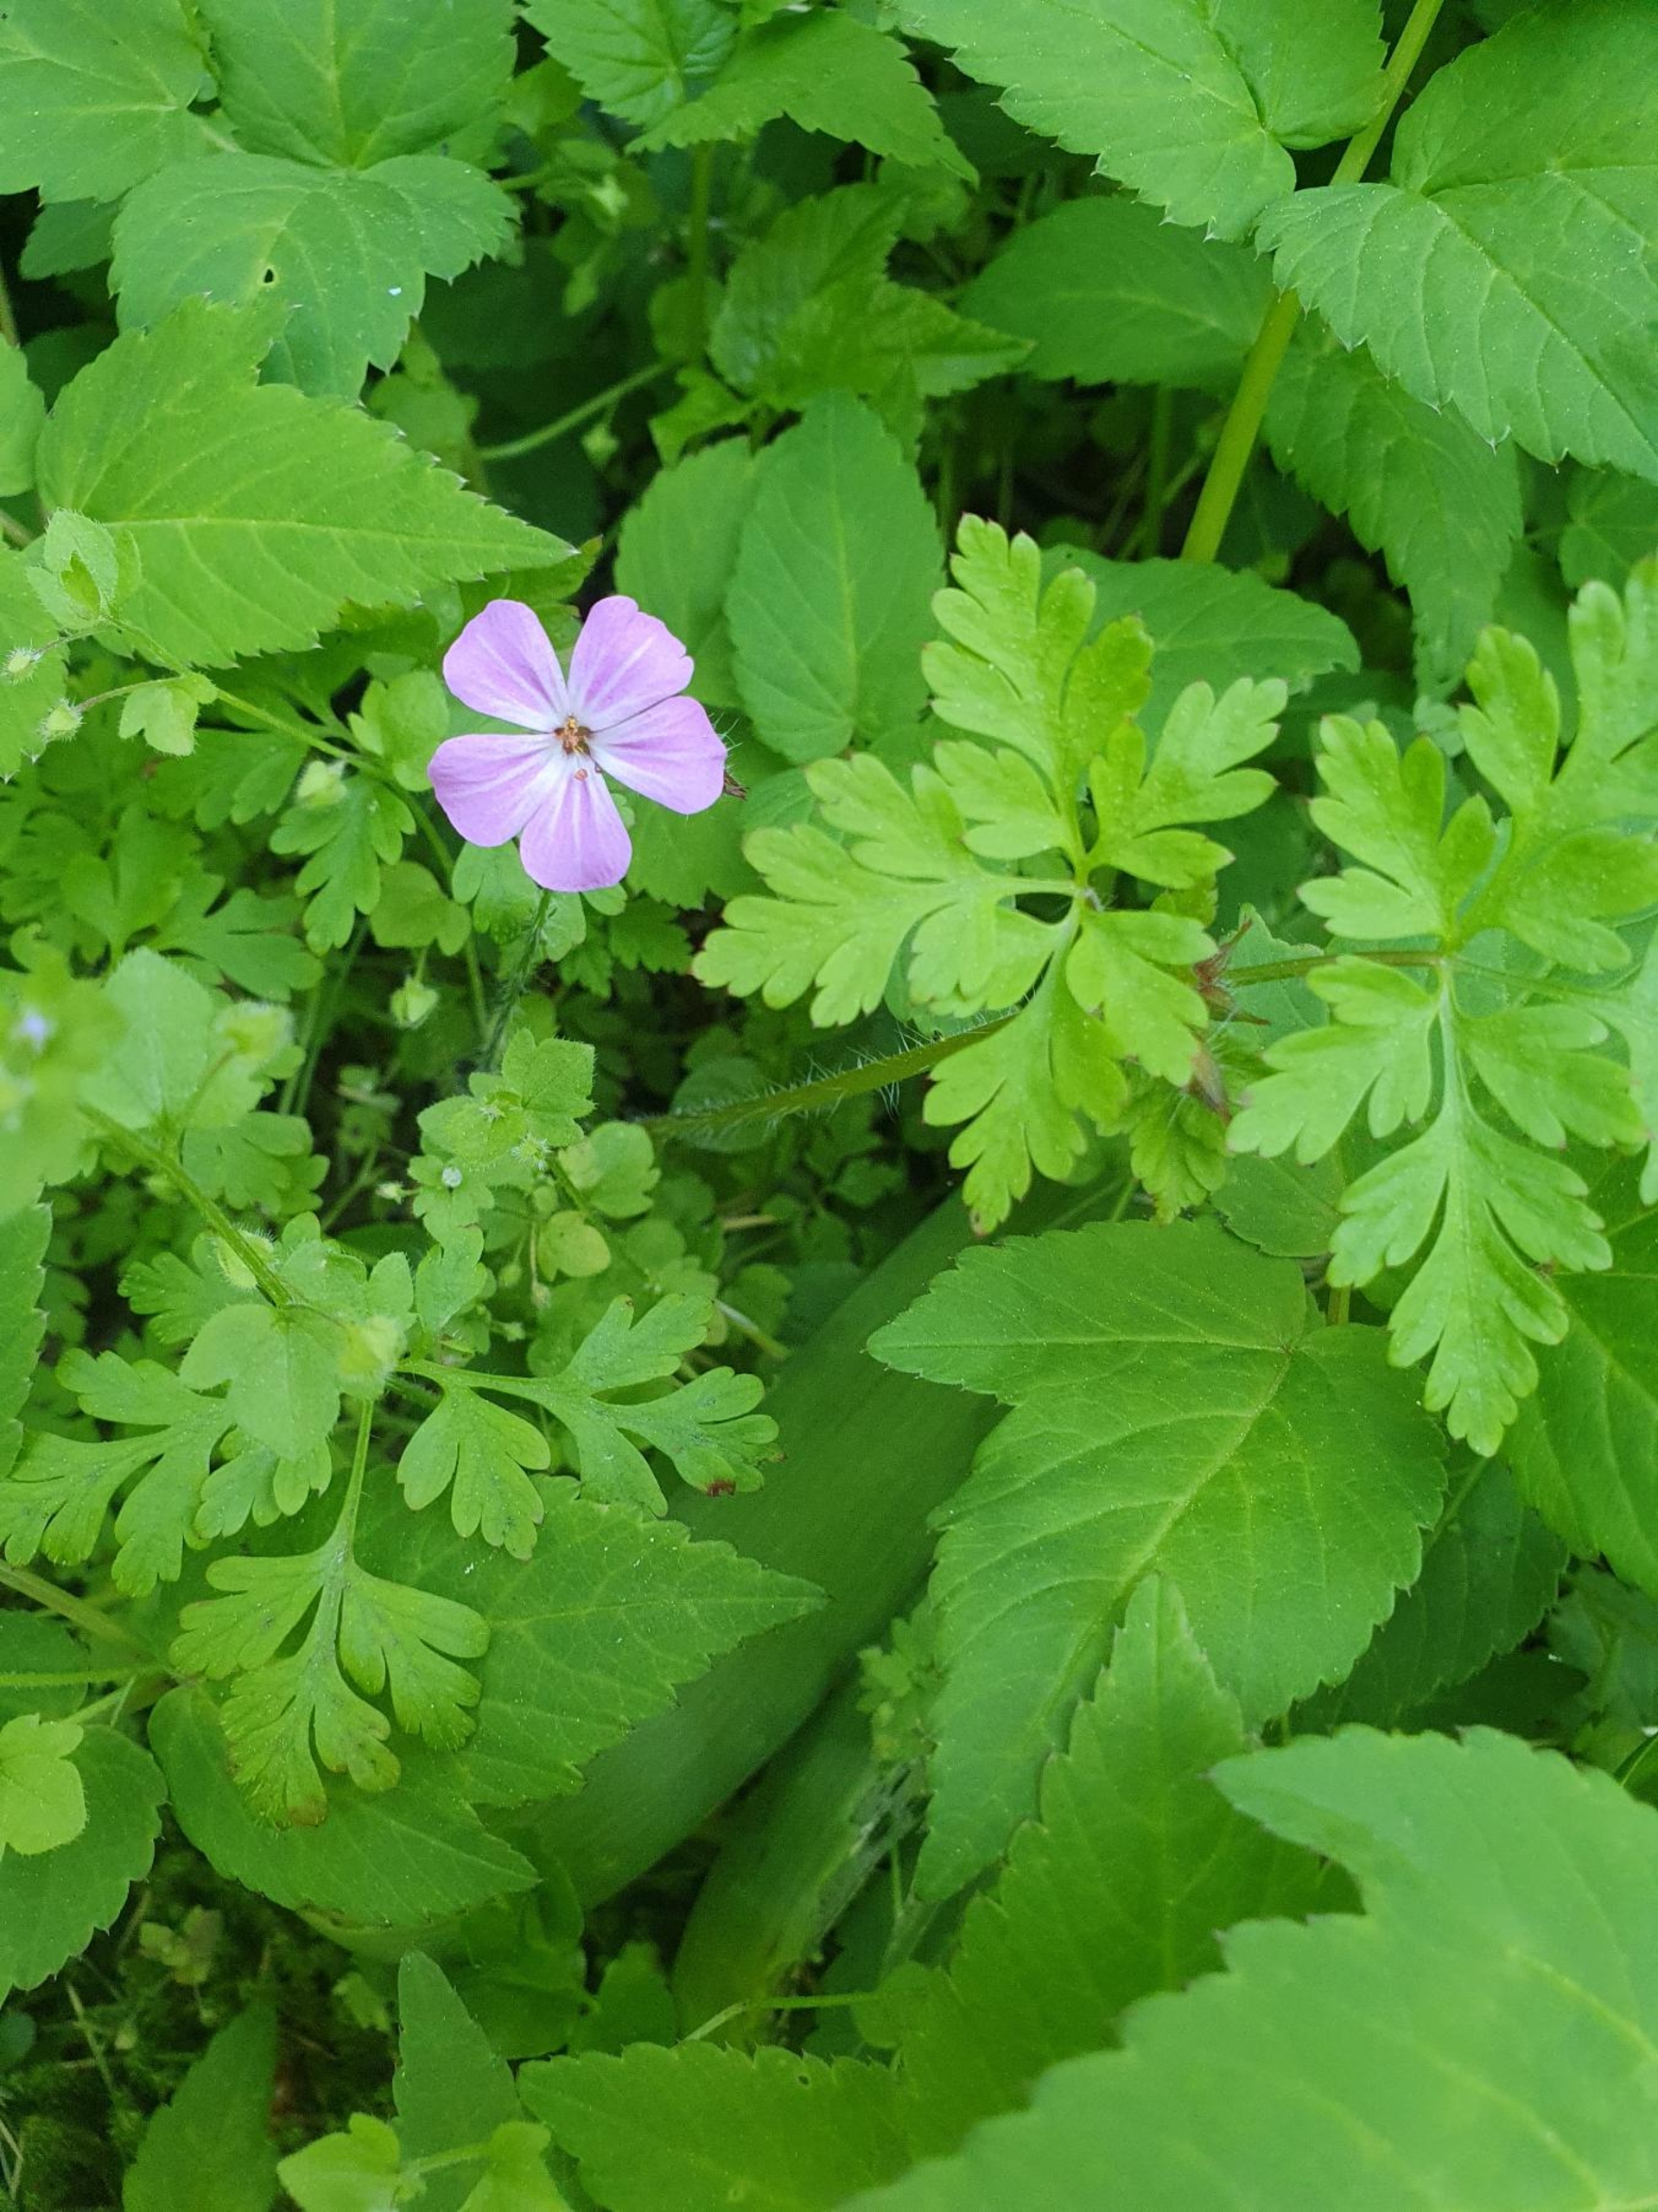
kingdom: Plantae
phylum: Tracheophyta
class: Magnoliopsida
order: Geraniales
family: Geraniaceae
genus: Geranium
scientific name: Geranium robertianum
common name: Stinkende storkenæb
